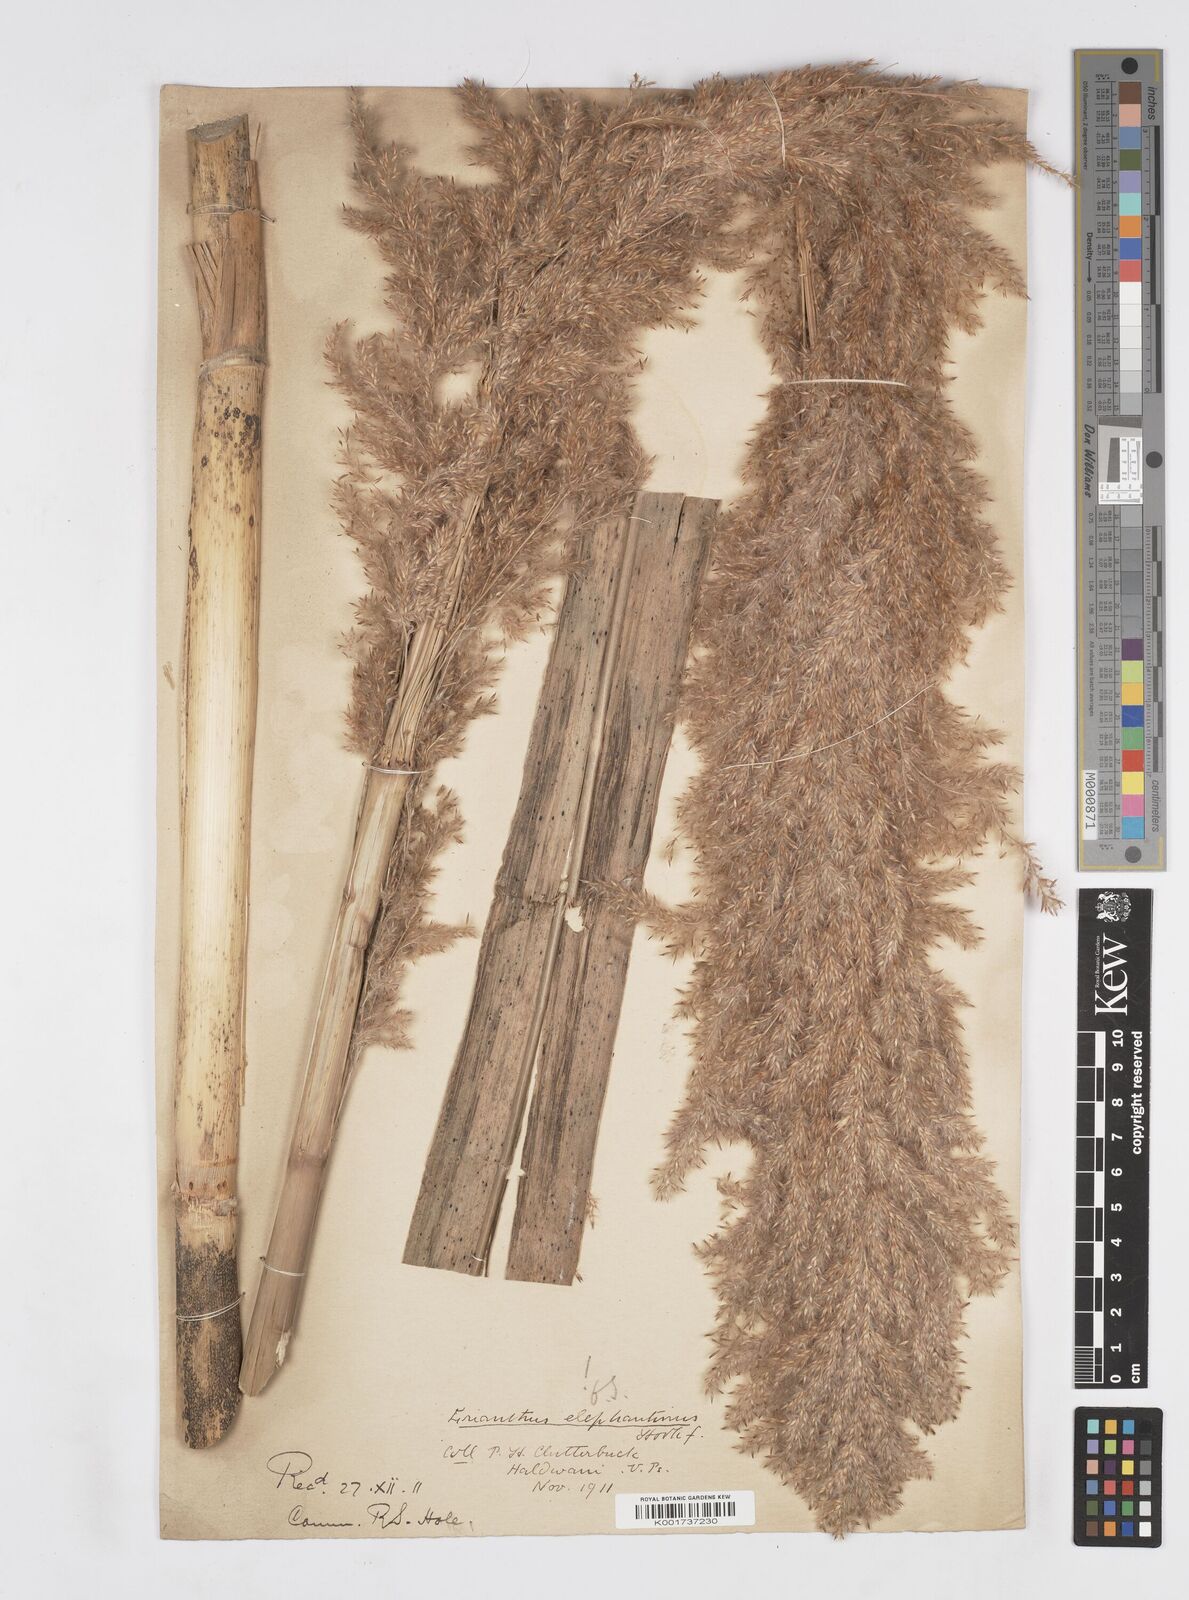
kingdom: Plantae
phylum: Tracheophyta
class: Liliopsida
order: Poales
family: Poaceae
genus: Tripidium
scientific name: Tripidium ravennae
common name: Ravenna grass
